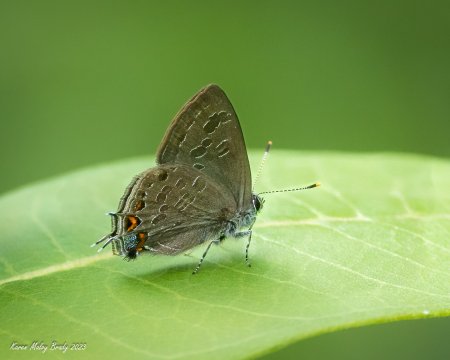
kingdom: Animalia
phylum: Arthropoda
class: Insecta
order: Lepidoptera
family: Lycaenidae
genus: Satyrium
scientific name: Satyrium liparops
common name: Striped Hairstreak
